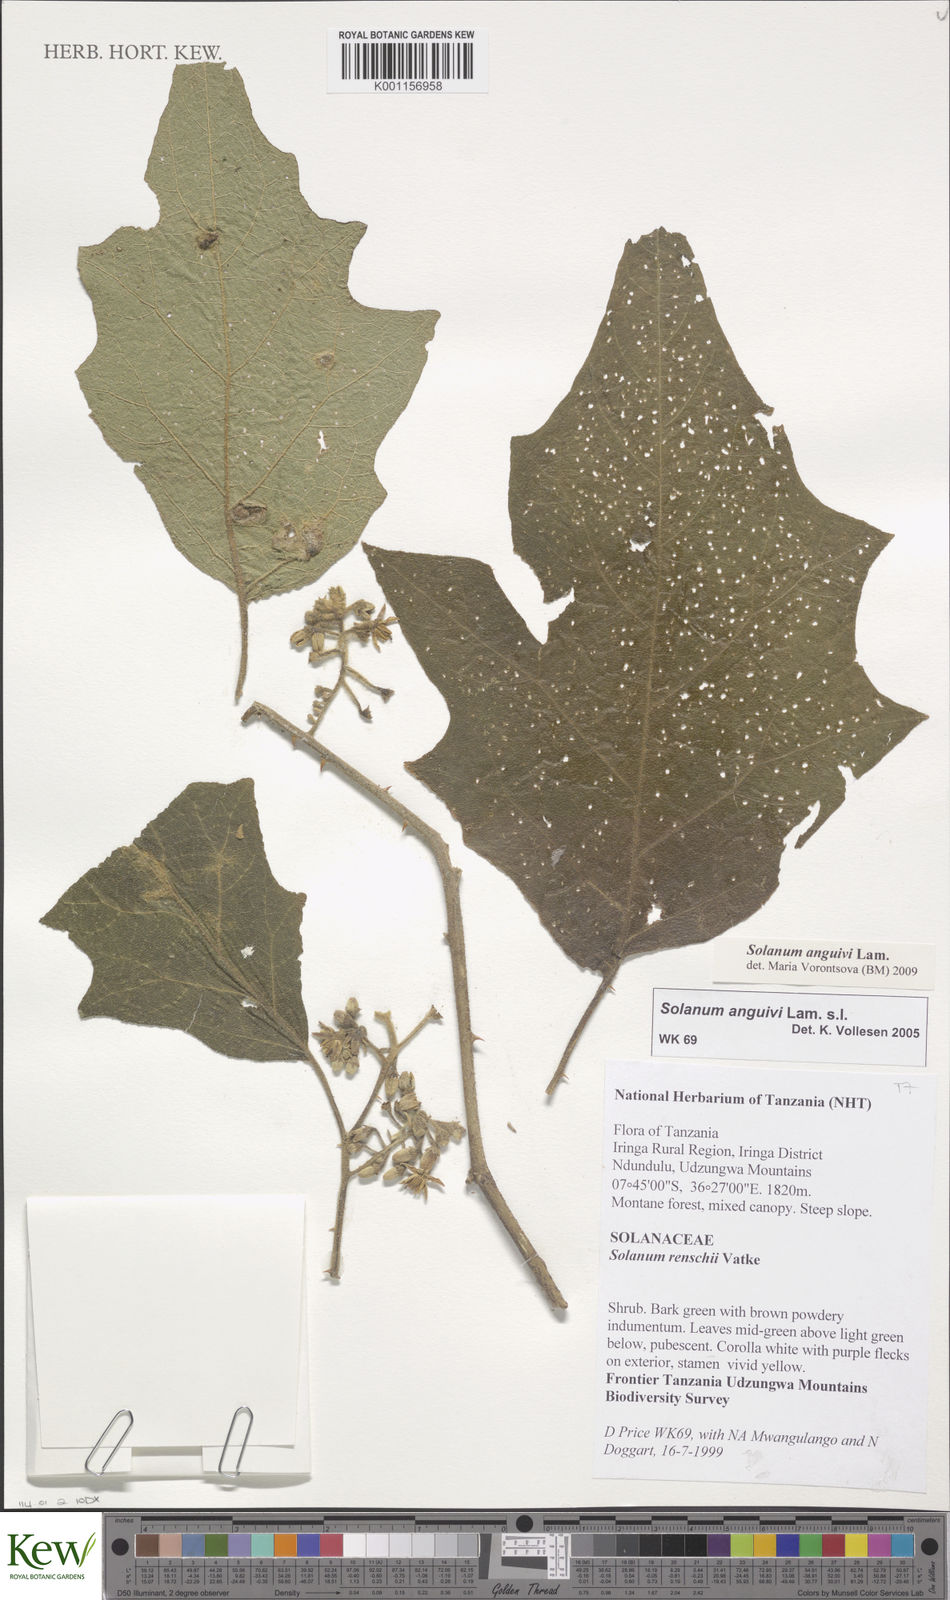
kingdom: Plantae
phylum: Tracheophyta
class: Magnoliopsida
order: Solanales
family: Solanaceae
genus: Solanum
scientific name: Solanum anguivi
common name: Forest bitterberry
